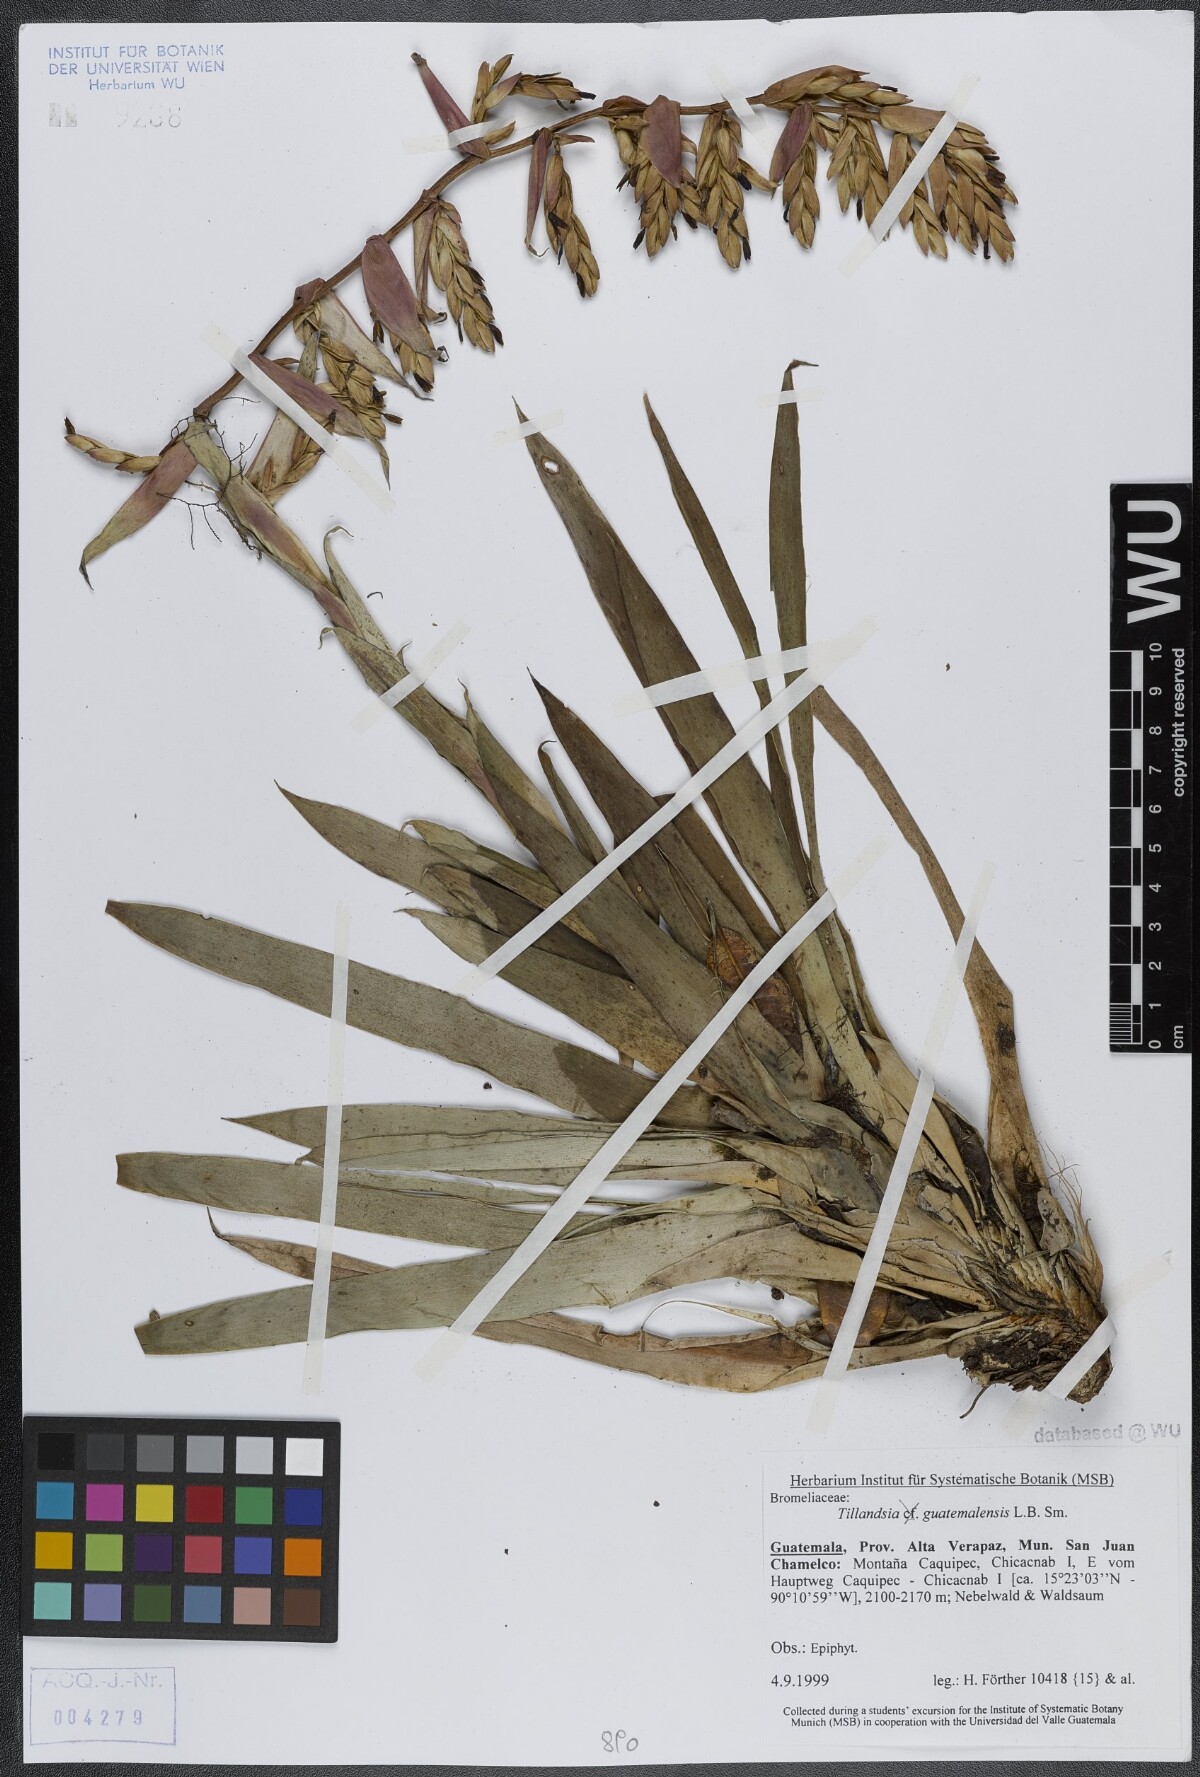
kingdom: Plantae
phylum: Tracheophyta
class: Liliopsida
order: Poales
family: Bromeliaceae
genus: Tillandsia
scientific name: Tillandsia guatemalensis
